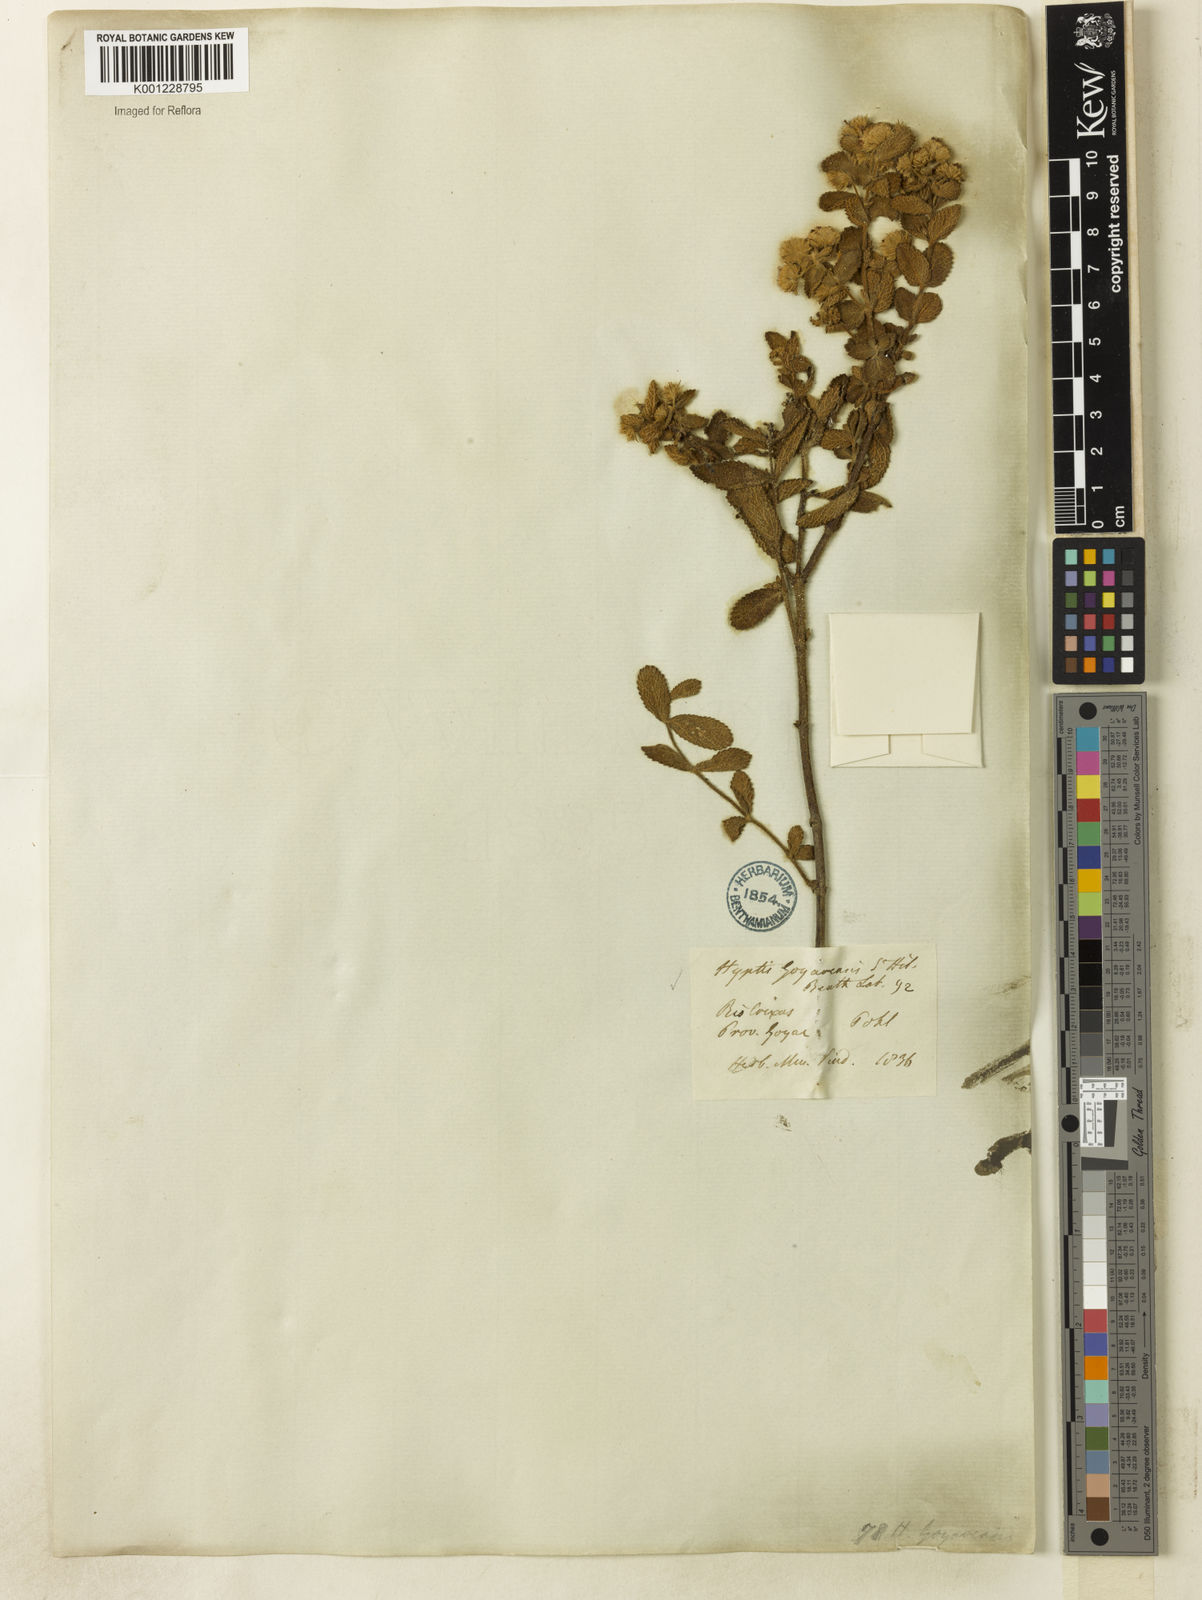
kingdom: Plantae
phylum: Tracheophyta
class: Magnoliopsida
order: Lamiales
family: Lamiaceae
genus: Hyptis
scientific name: Hyptis goyazensis
